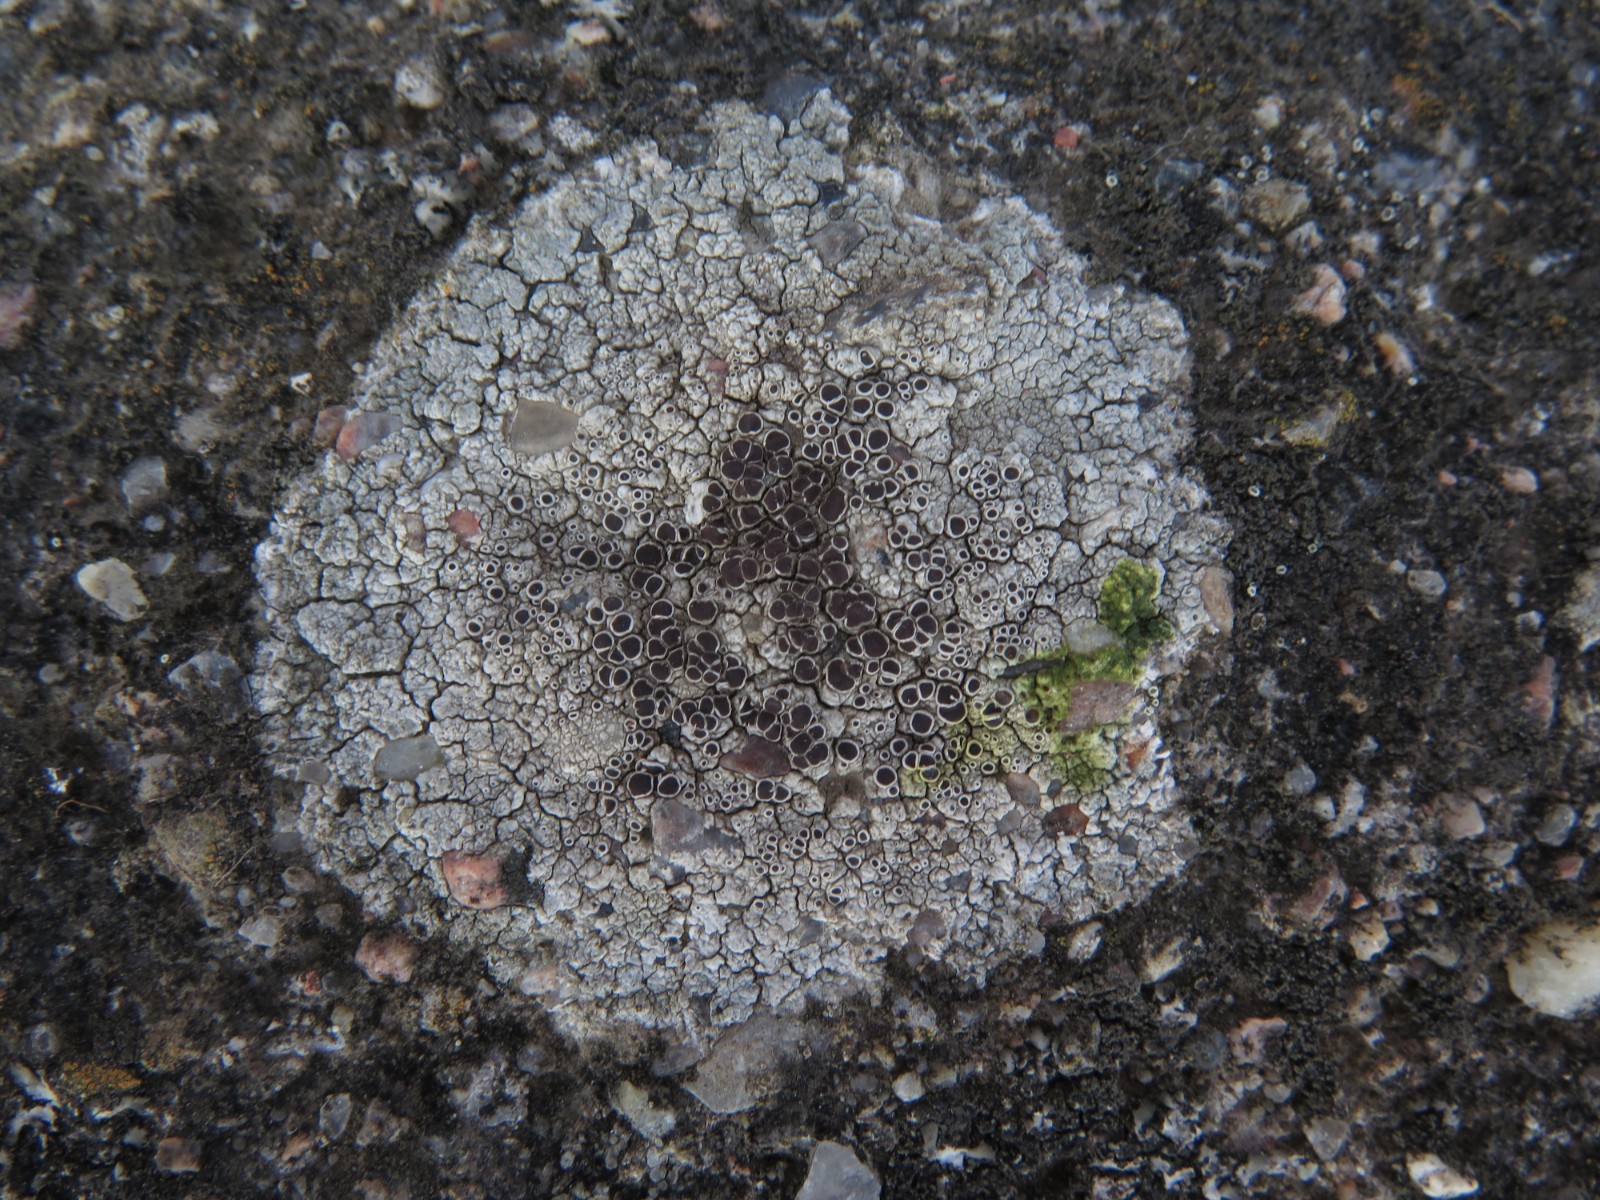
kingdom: Fungi
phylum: Ascomycota
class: Lecanoromycetes
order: Lecanorales
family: Lecanoraceae
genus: Lecanora
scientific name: Lecanora campestris
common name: mur-kantskivelav
